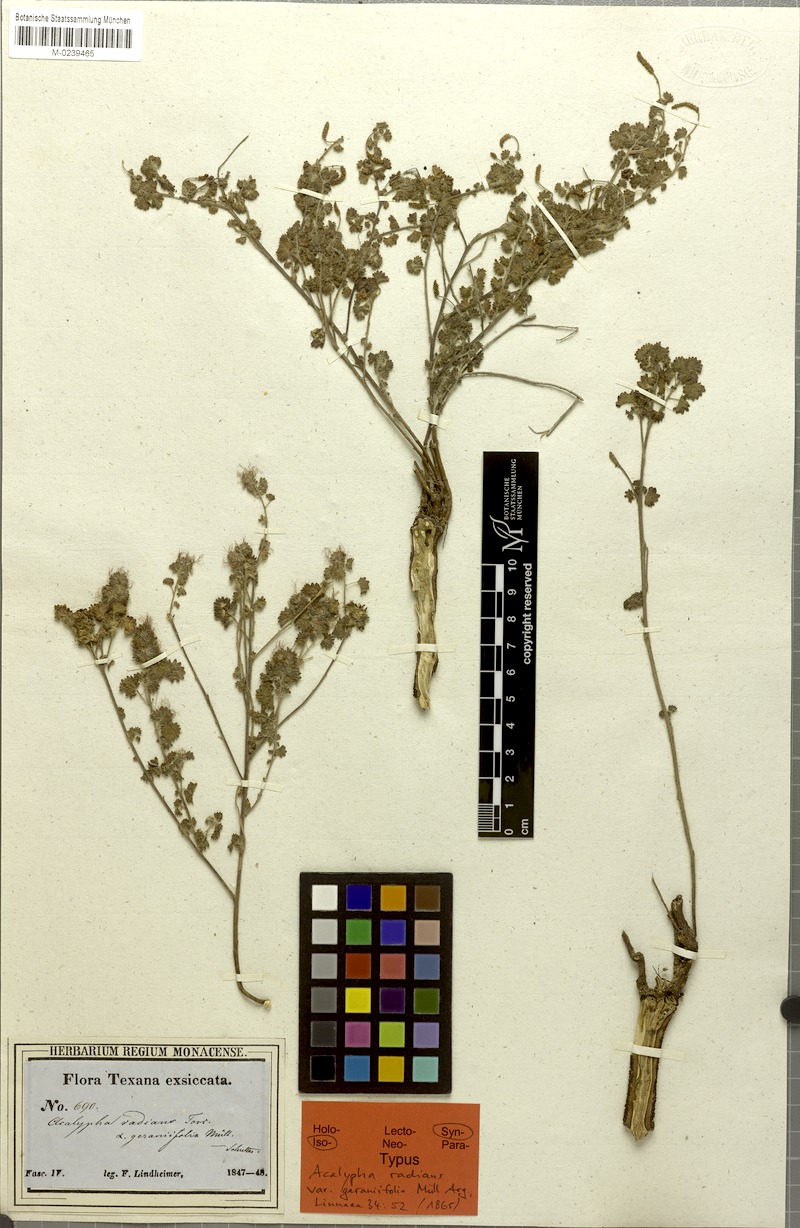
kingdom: Plantae
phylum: Tracheophyta
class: Magnoliopsida
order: Malpighiales
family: Euphorbiaceae
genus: Acalypha
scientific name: Acalypha radians
